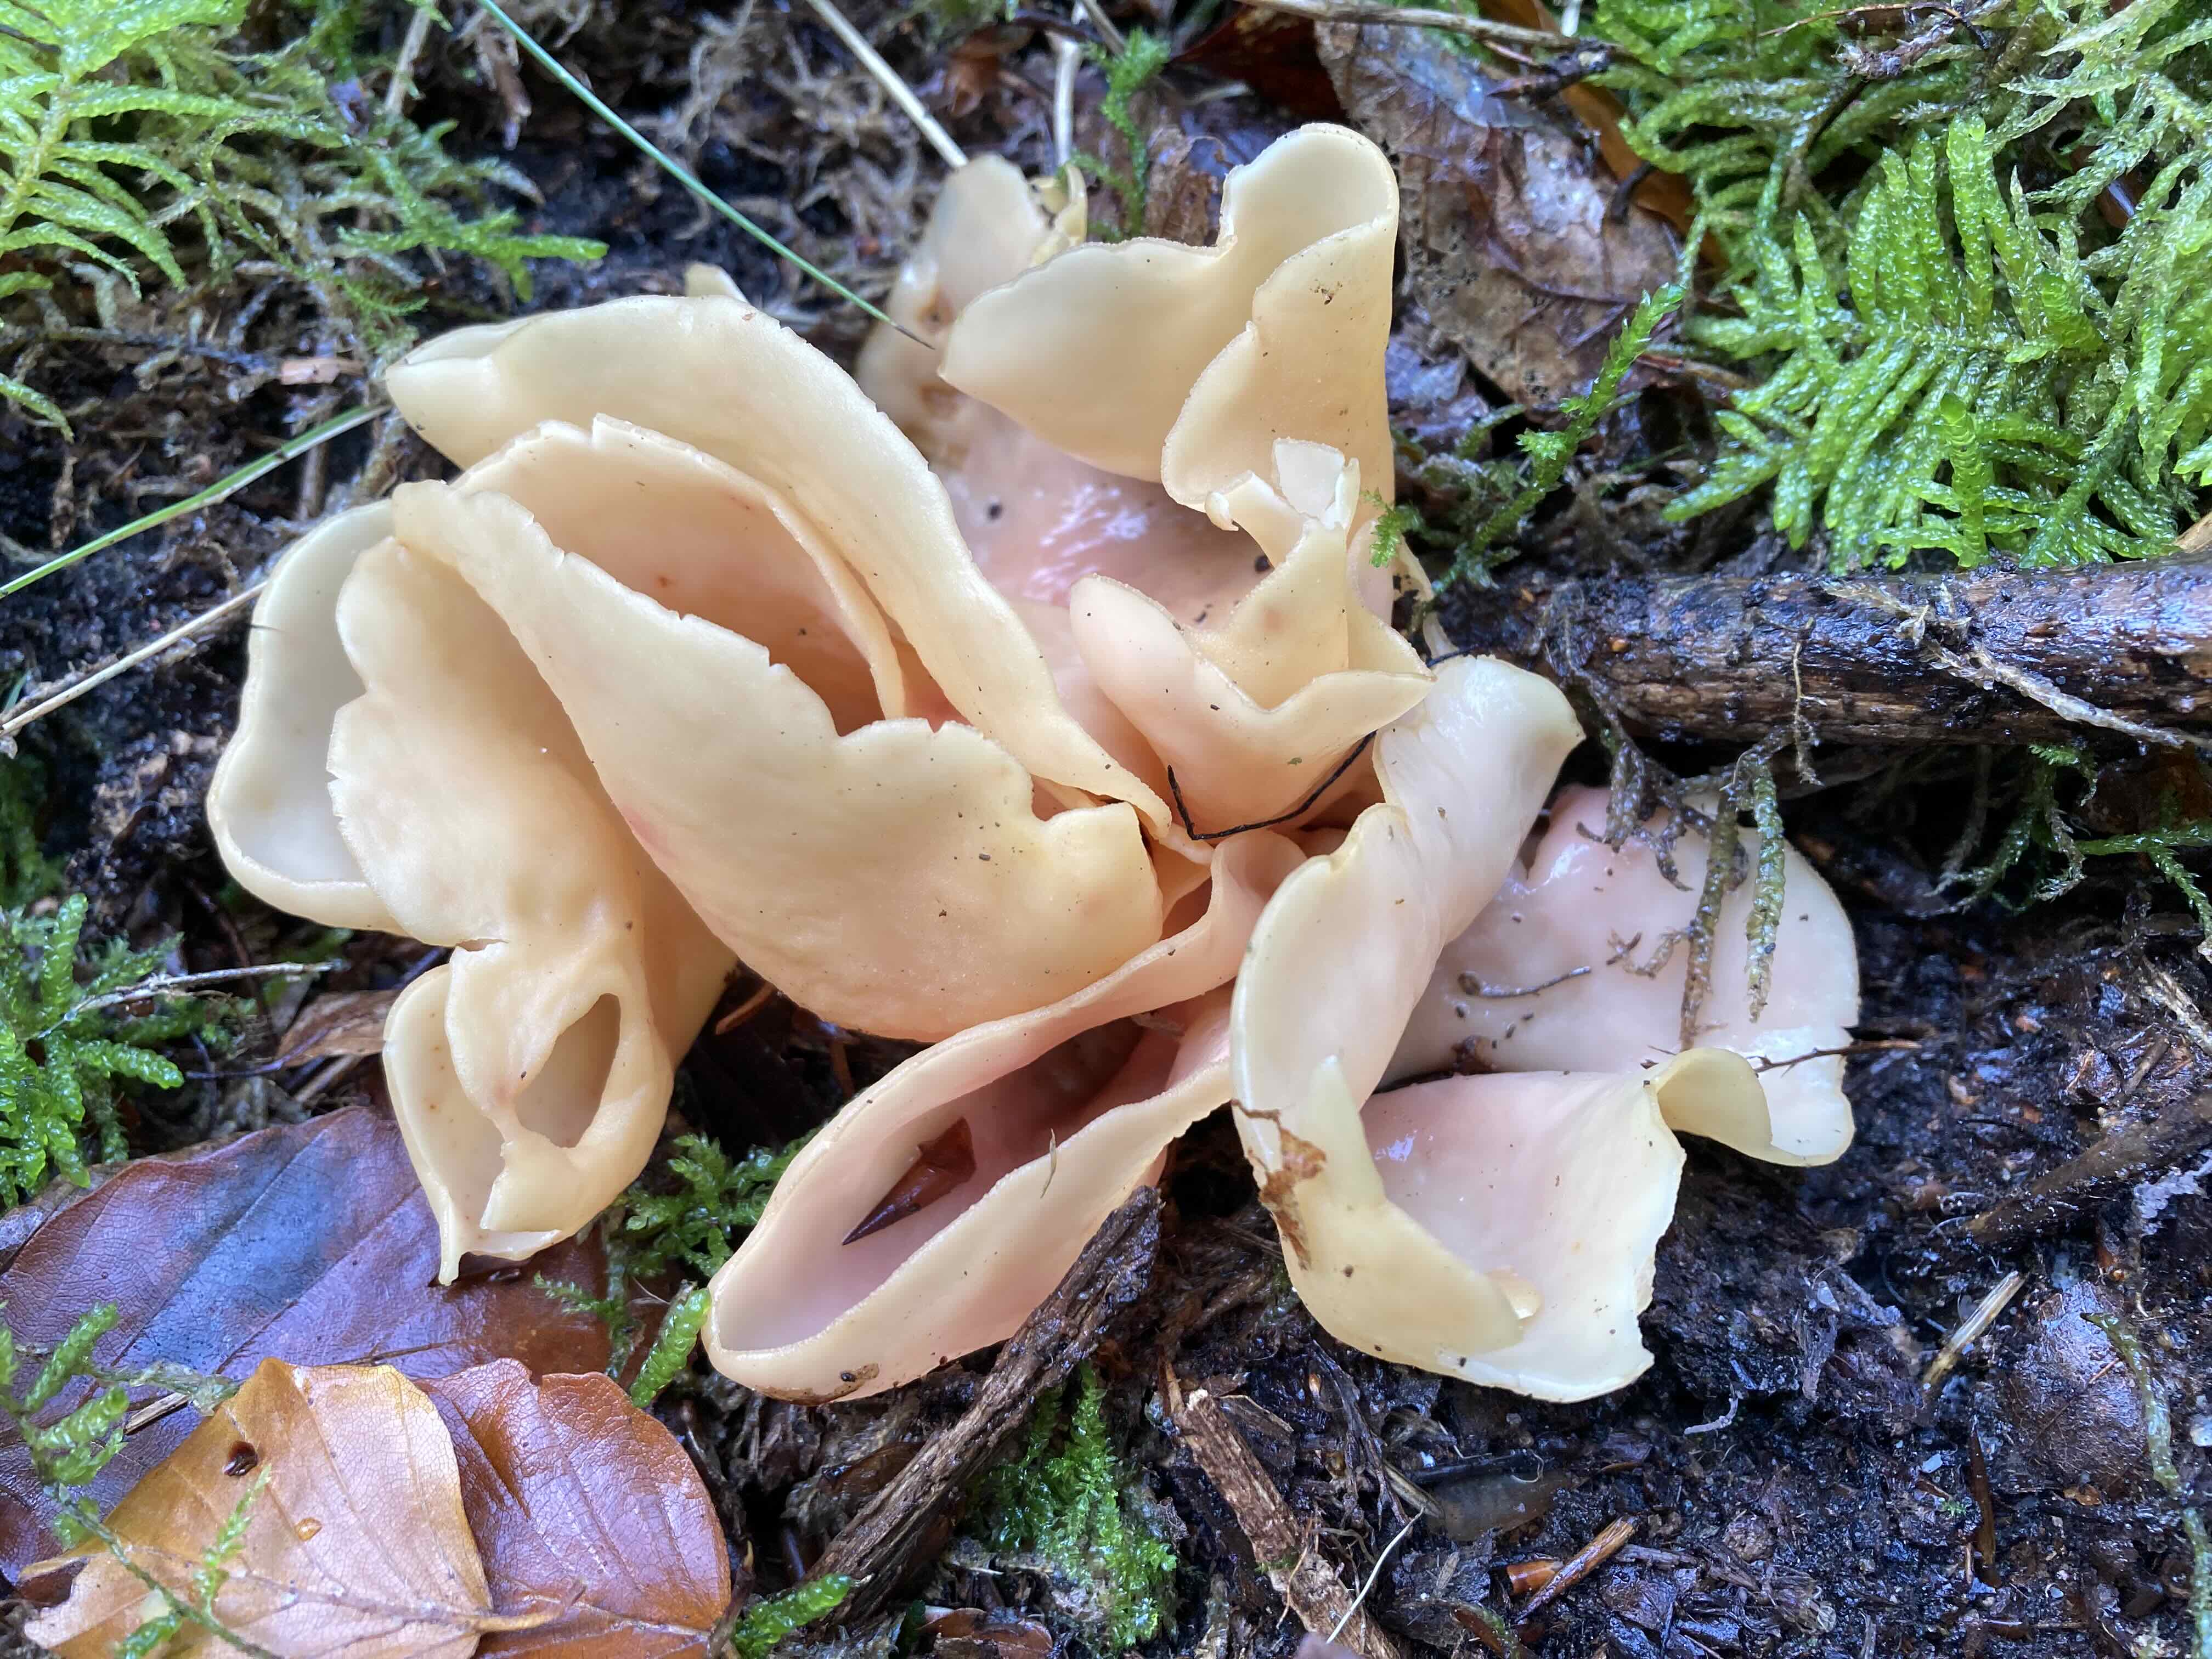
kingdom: Fungi
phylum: Ascomycota
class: Pezizomycetes
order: Pezizales
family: Otideaceae
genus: Otidea
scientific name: Otidea onotica
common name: æsel-ørebæger
